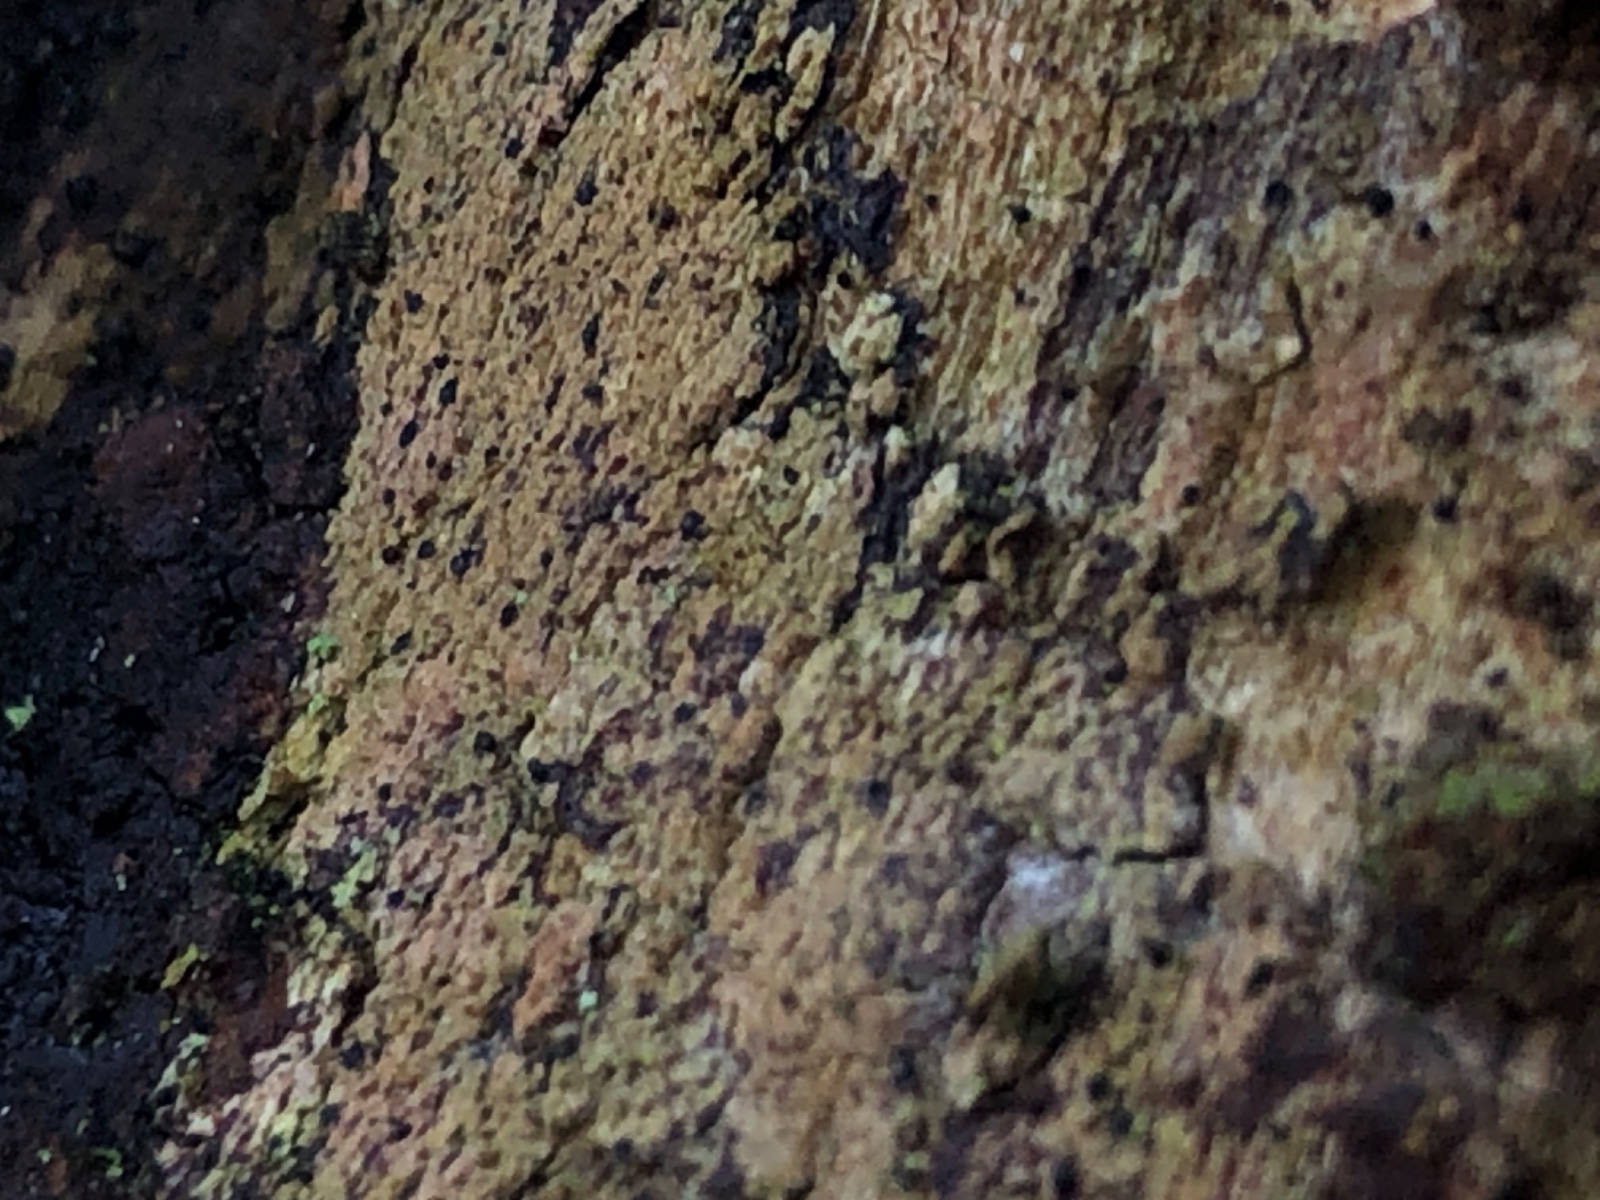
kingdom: Fungi
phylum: Ascomycota
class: Sordariomycetes
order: Microascales
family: Ceratocystidaceae
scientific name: Ceratocystidaceae
